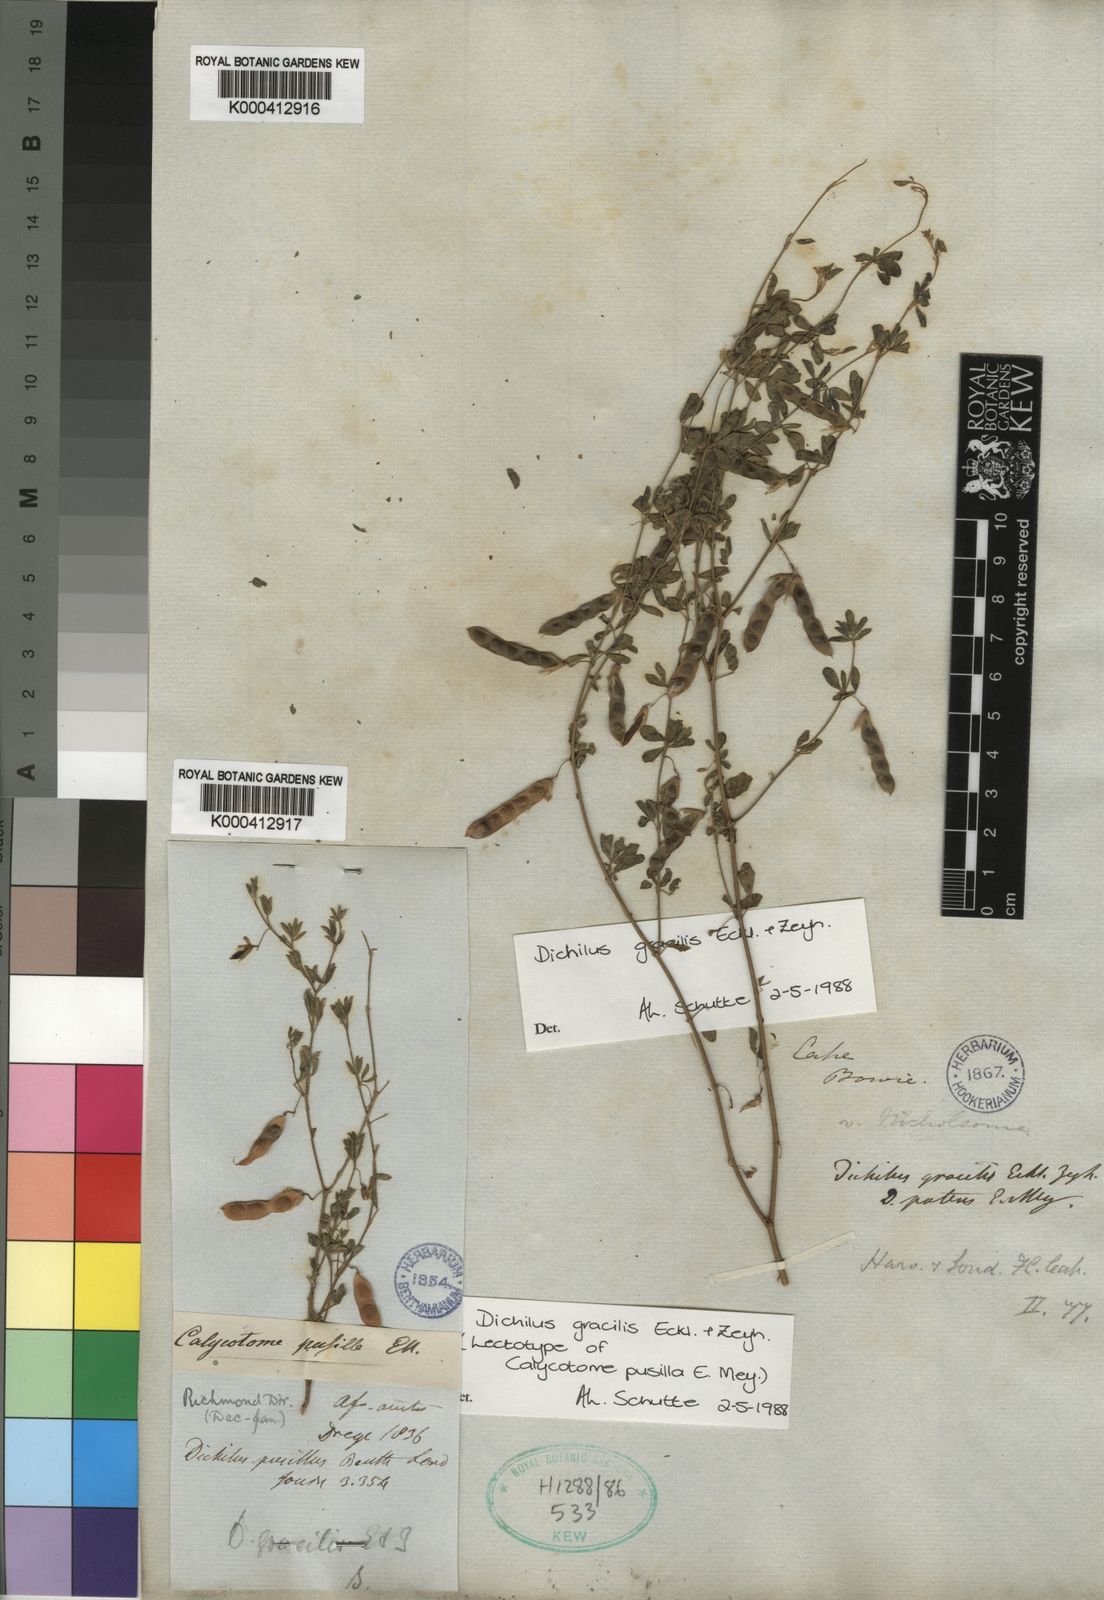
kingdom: Plantae
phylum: Tracheophyta
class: Magnoliopsida
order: Fabales
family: Fabaceae
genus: Dichilus
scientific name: Dichilus gracilis
